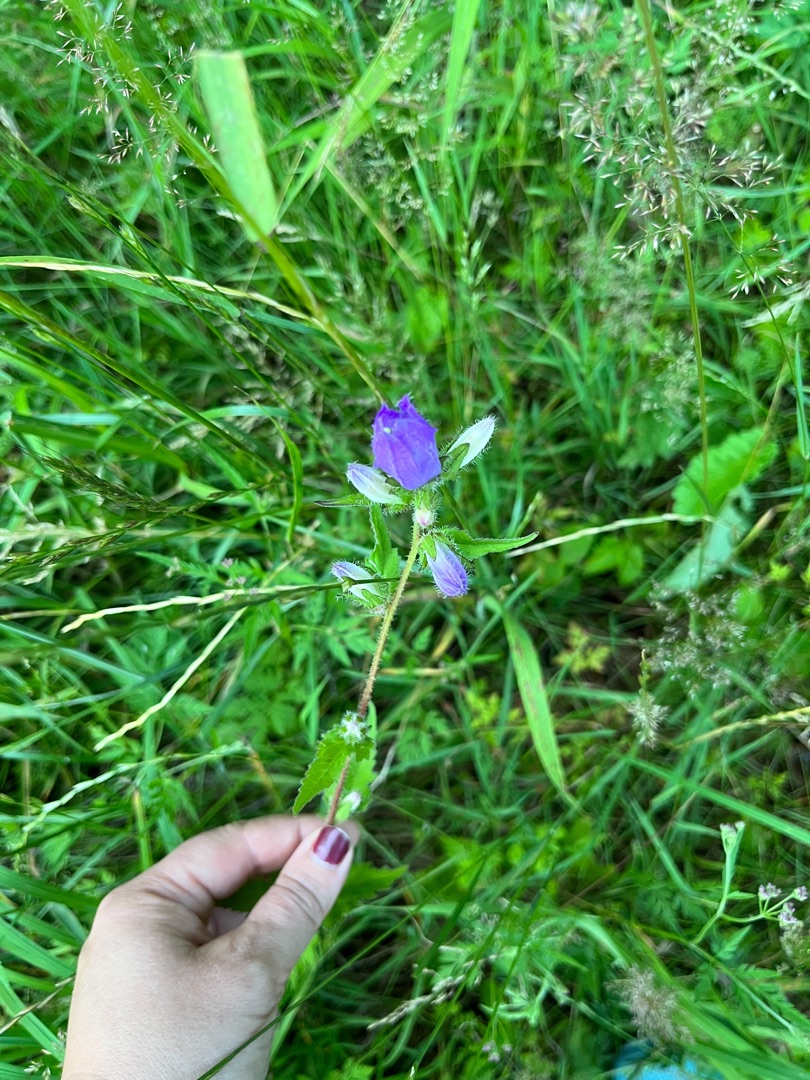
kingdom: Plantae
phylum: Tracheophyta
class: Magnoliopsida
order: Asterales
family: Campanulaceae
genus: Campanula
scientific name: Campanula trachelium
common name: Nælde-klokke
